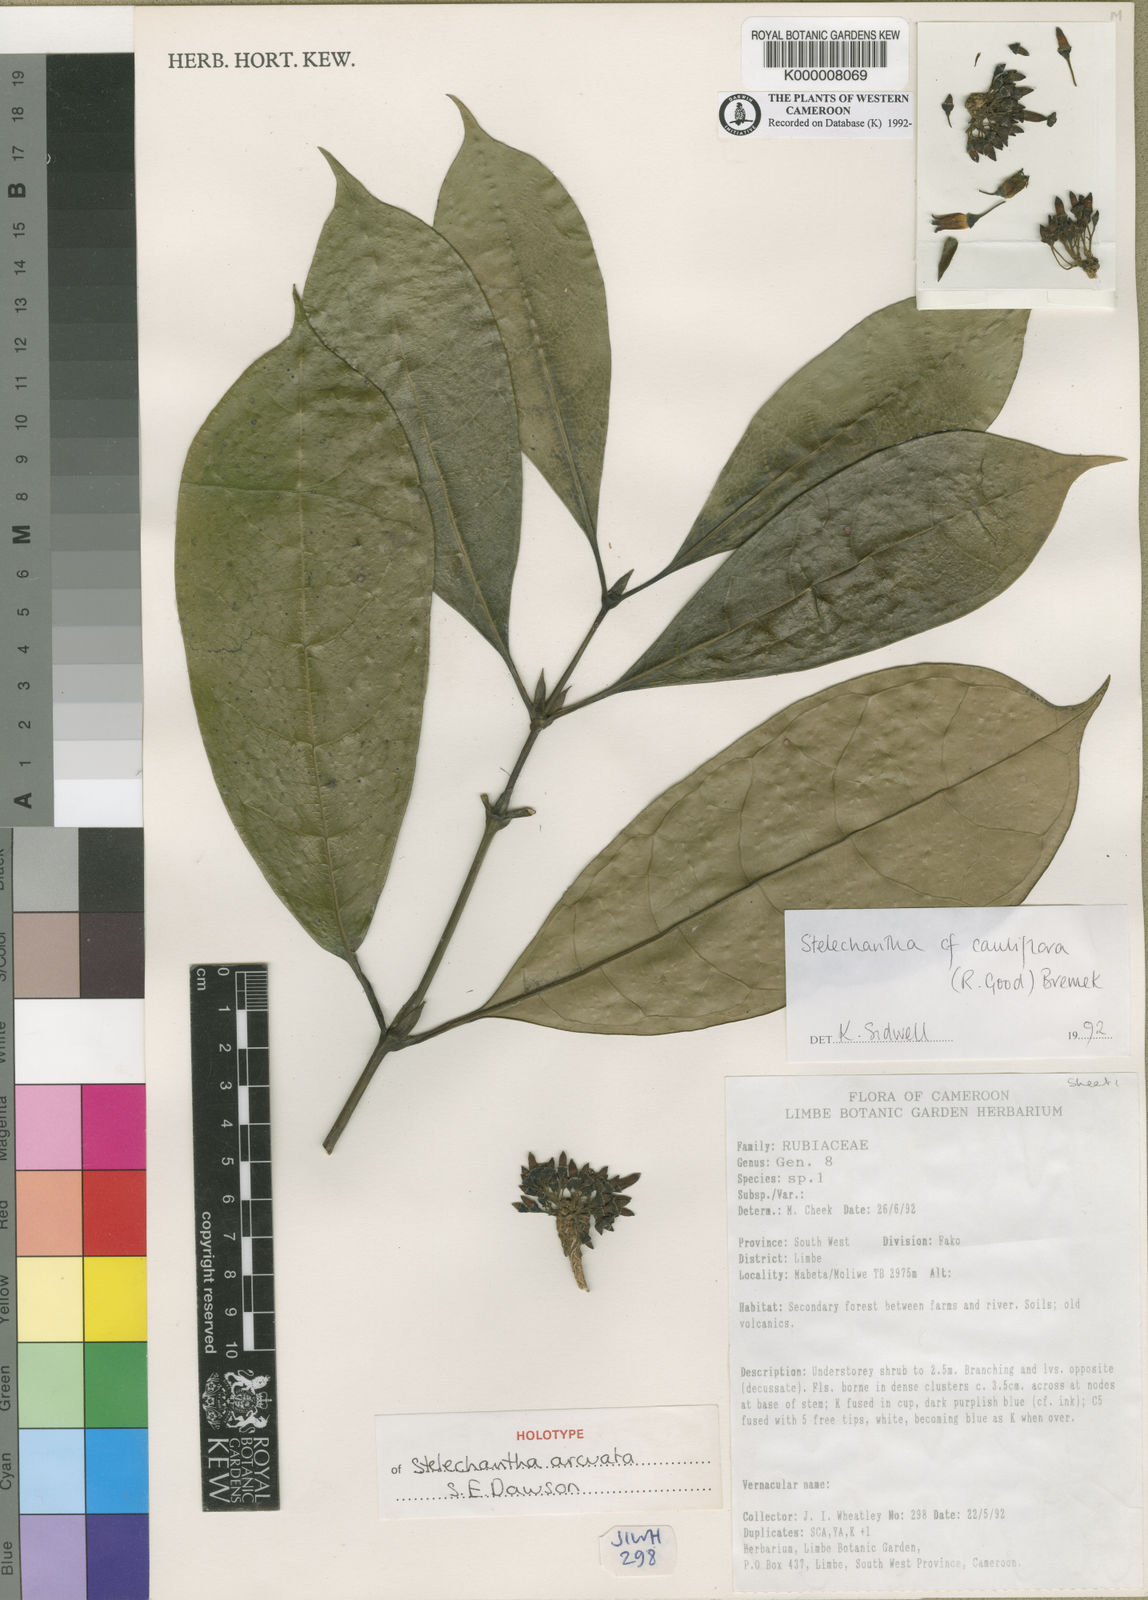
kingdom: Plantae
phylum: Tracheophyta
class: Magnoliopsida
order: Gentianales
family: Rubiaceae
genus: Pauridiantha
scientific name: Pauridiantha arcuata
